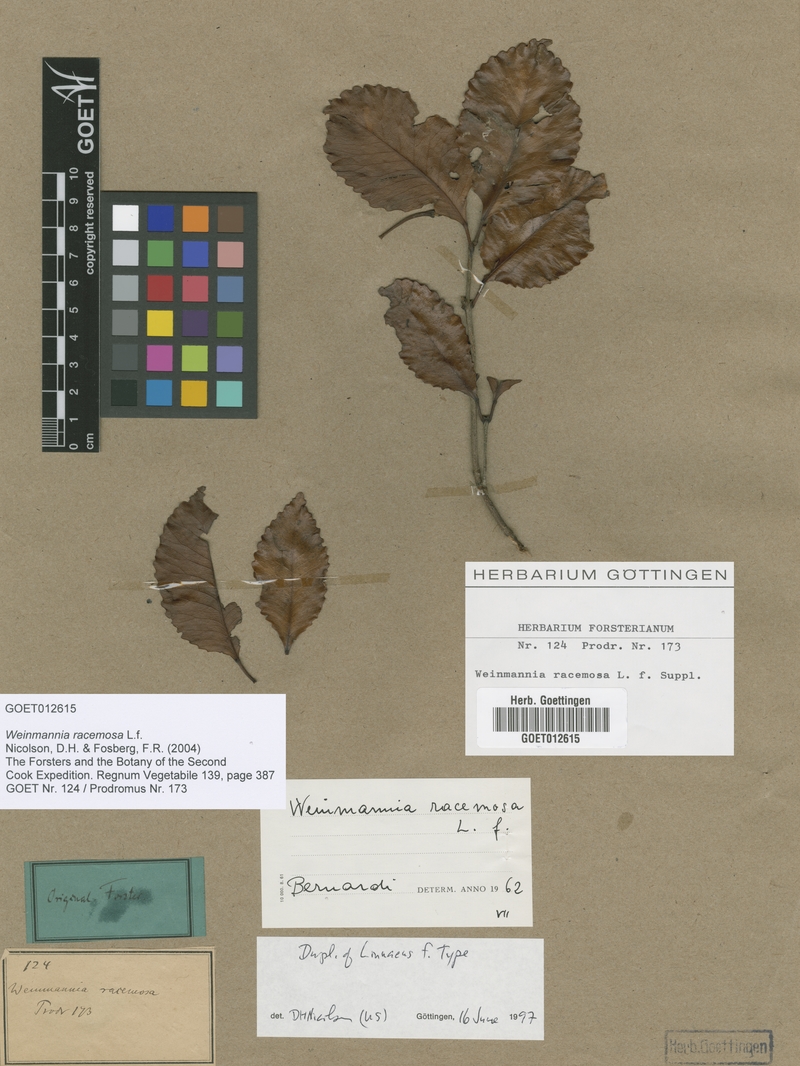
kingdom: Plantae
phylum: Tracheophyta
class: Magnoliopsida
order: Oxalidales
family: Cunoniaceae
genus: Pterophylla
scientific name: Pterophylla racemosa
